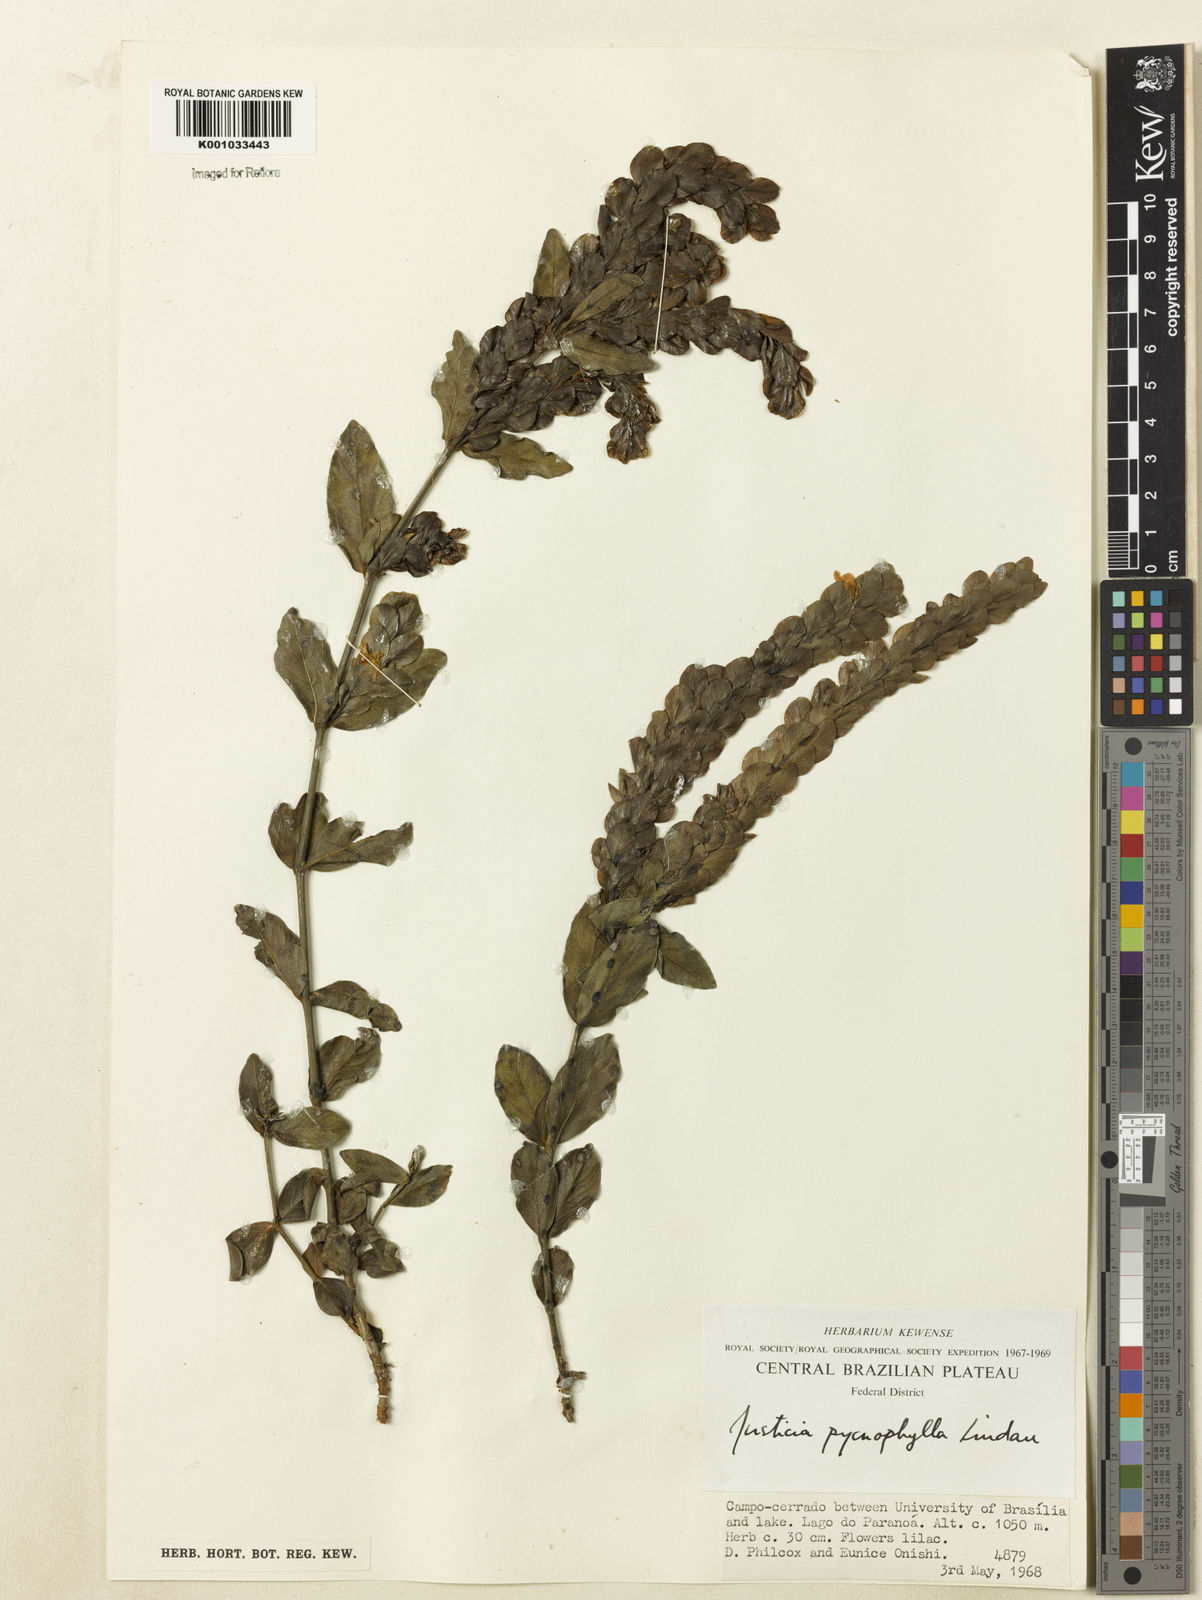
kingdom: Plantae
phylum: Tracheophyta
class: Magnoliopsida
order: Lamiales
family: Acanthaceae
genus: Justicia
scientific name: Justicia pycnophylla
